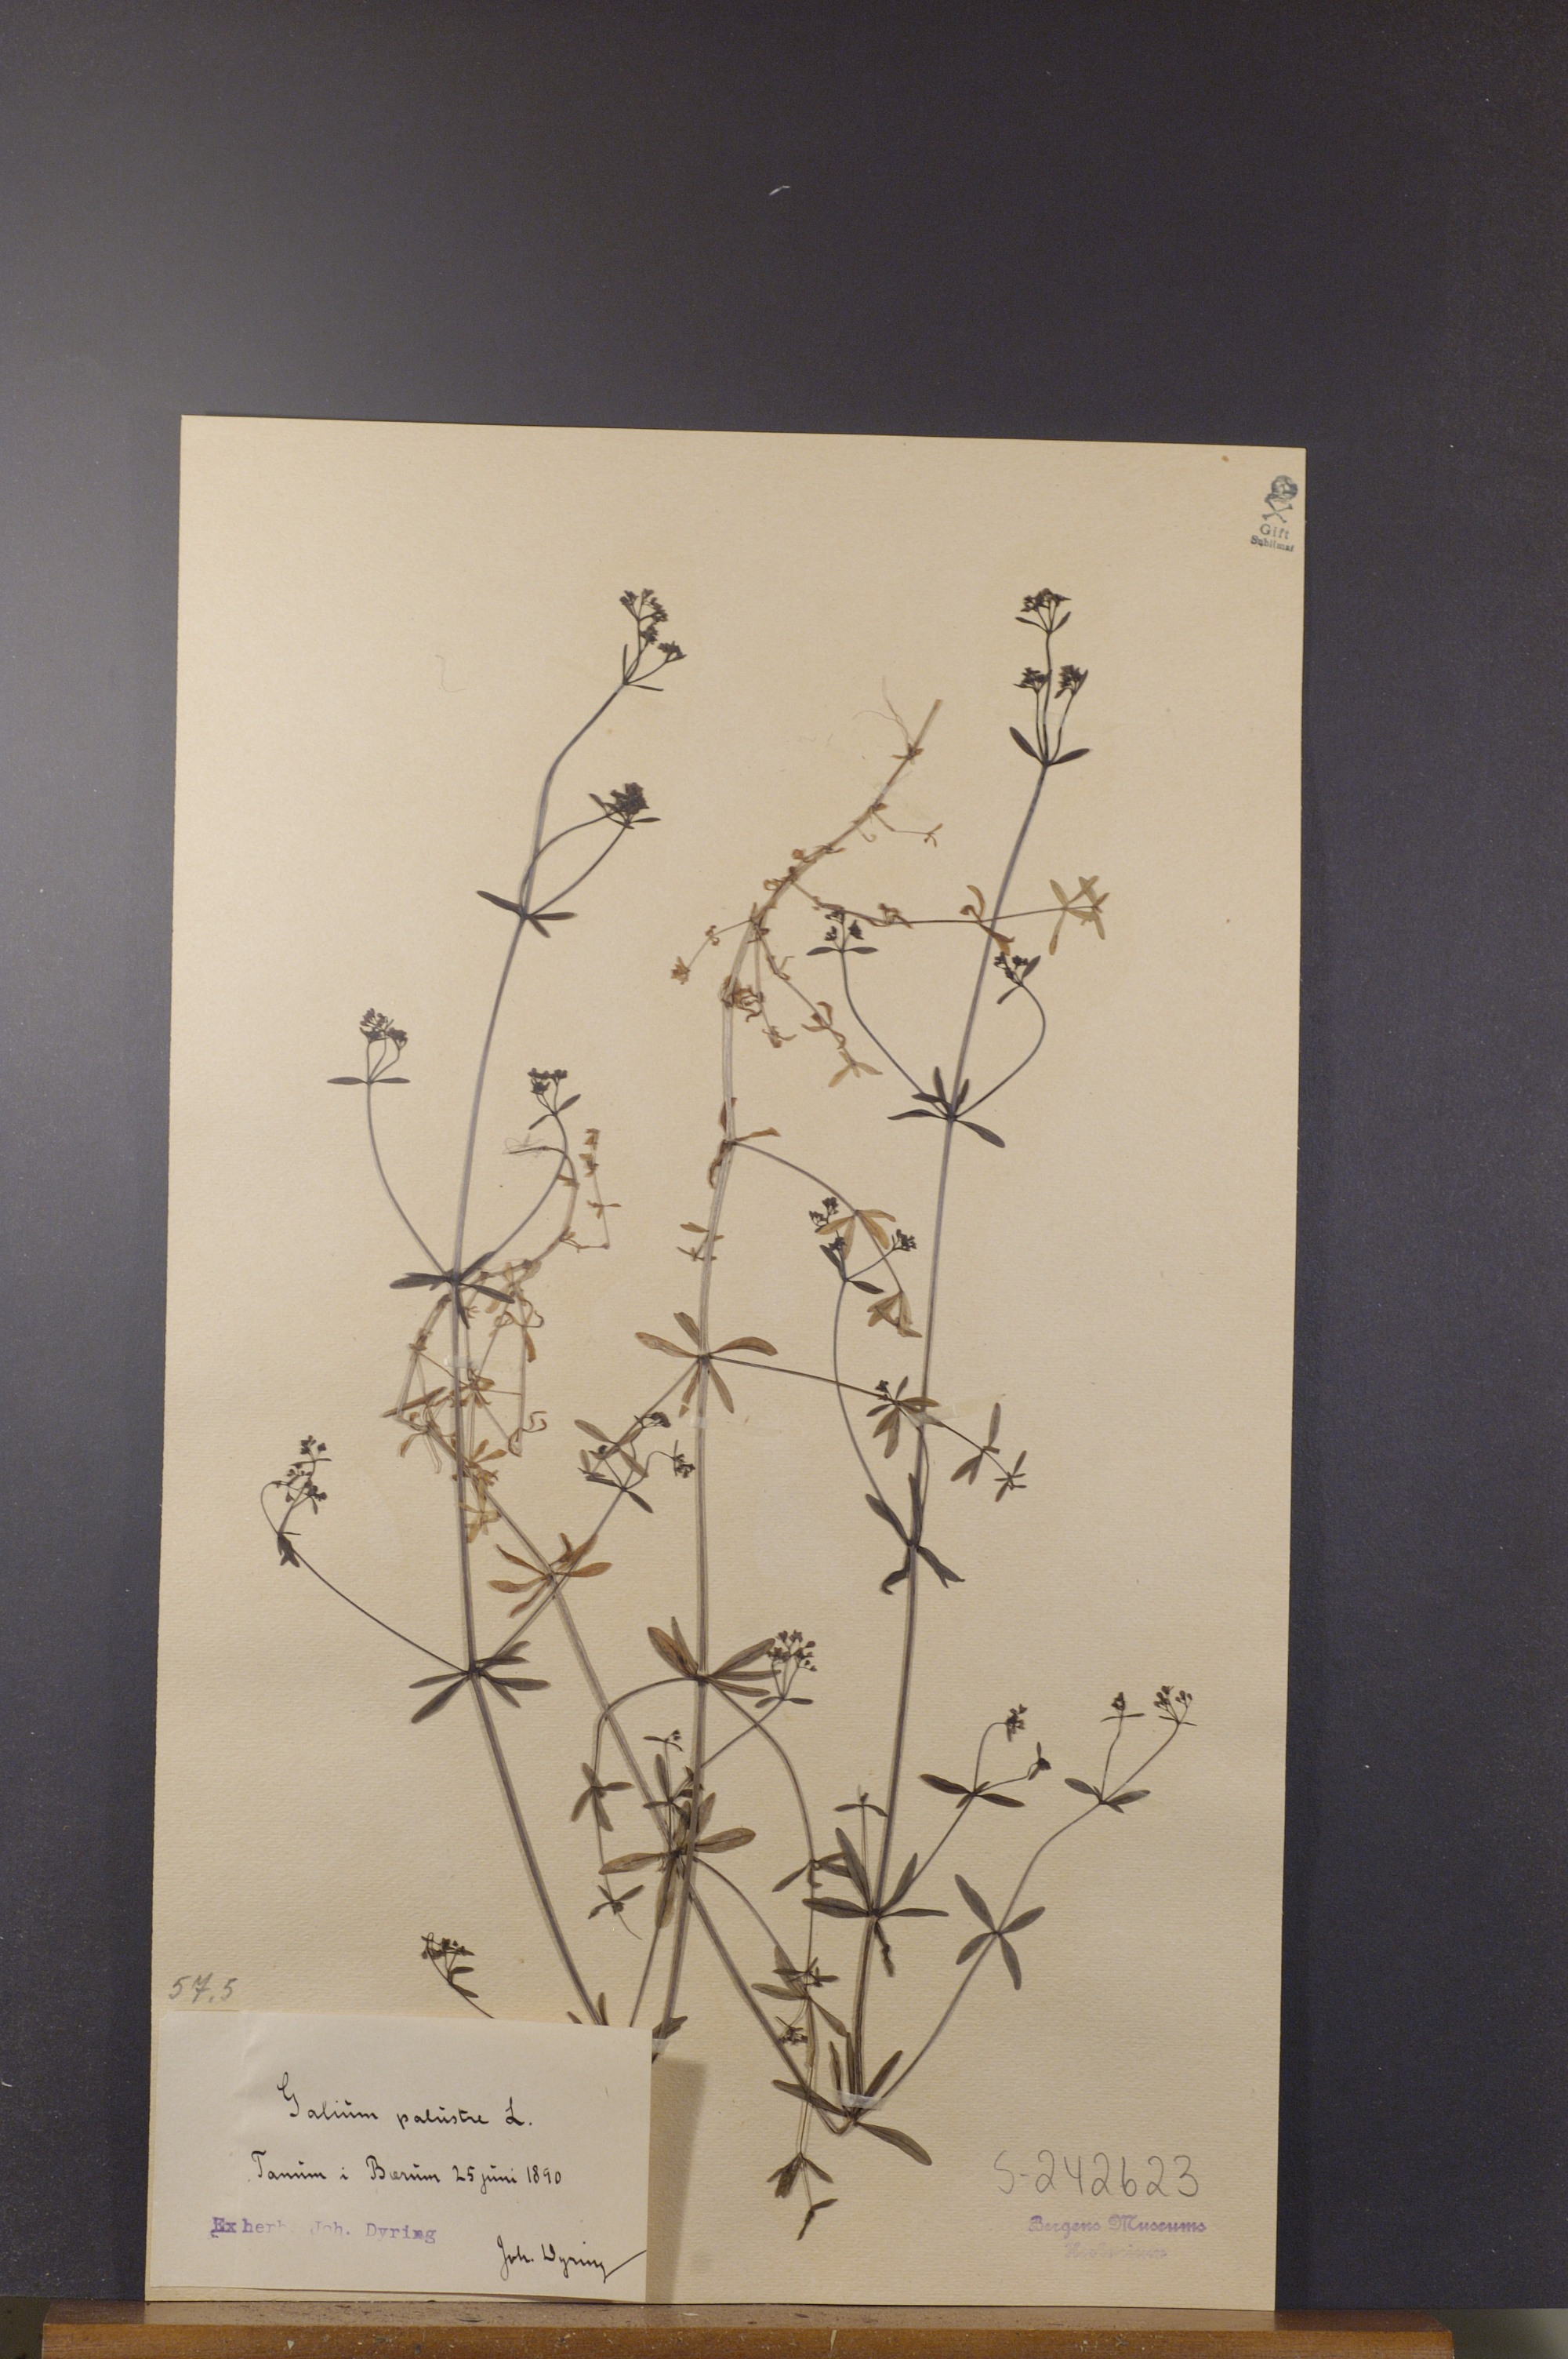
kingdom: Plantae
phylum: Tracheophyta
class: Magnoliopsida
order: Gentianales
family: Rubiaceae
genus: Galium
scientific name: Galium palustre
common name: Common marsh-bedstraw
